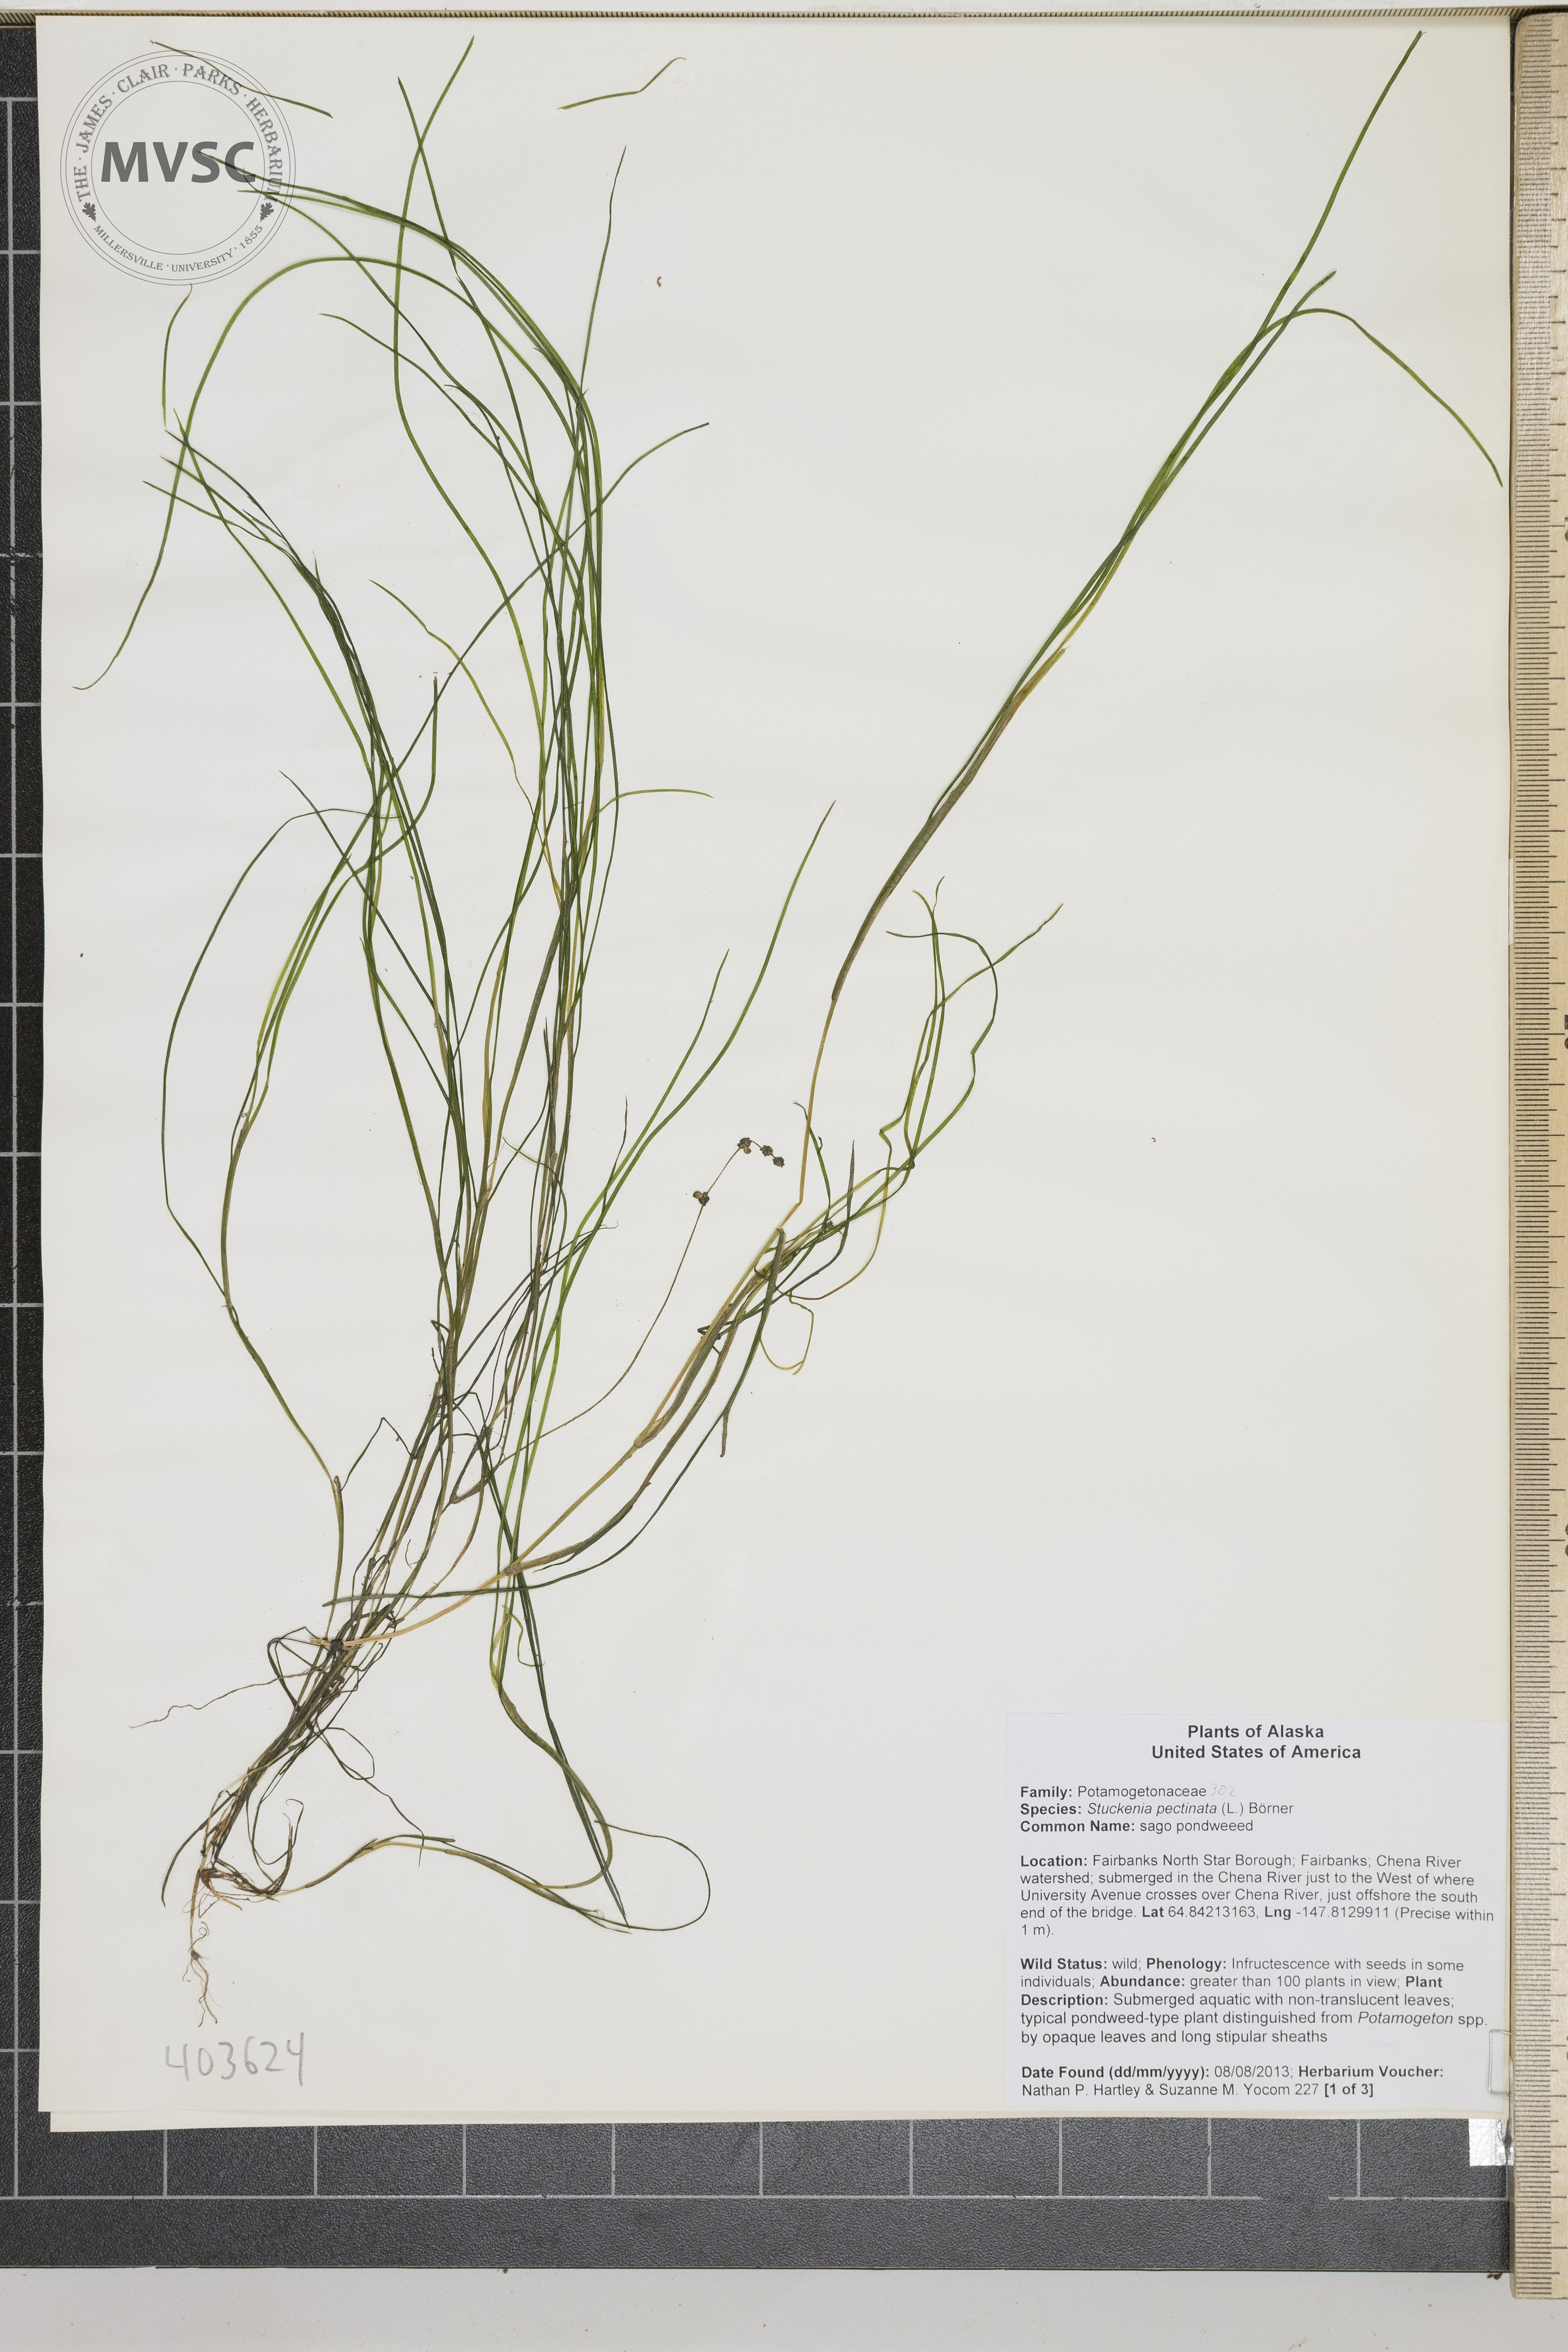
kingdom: Plantae
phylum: Tracheophyta
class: Liliopsida
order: Alismatales
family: Potamogetonaceae
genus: Stuckenia
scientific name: Stuckenia pectinata
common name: Sago pondweed
